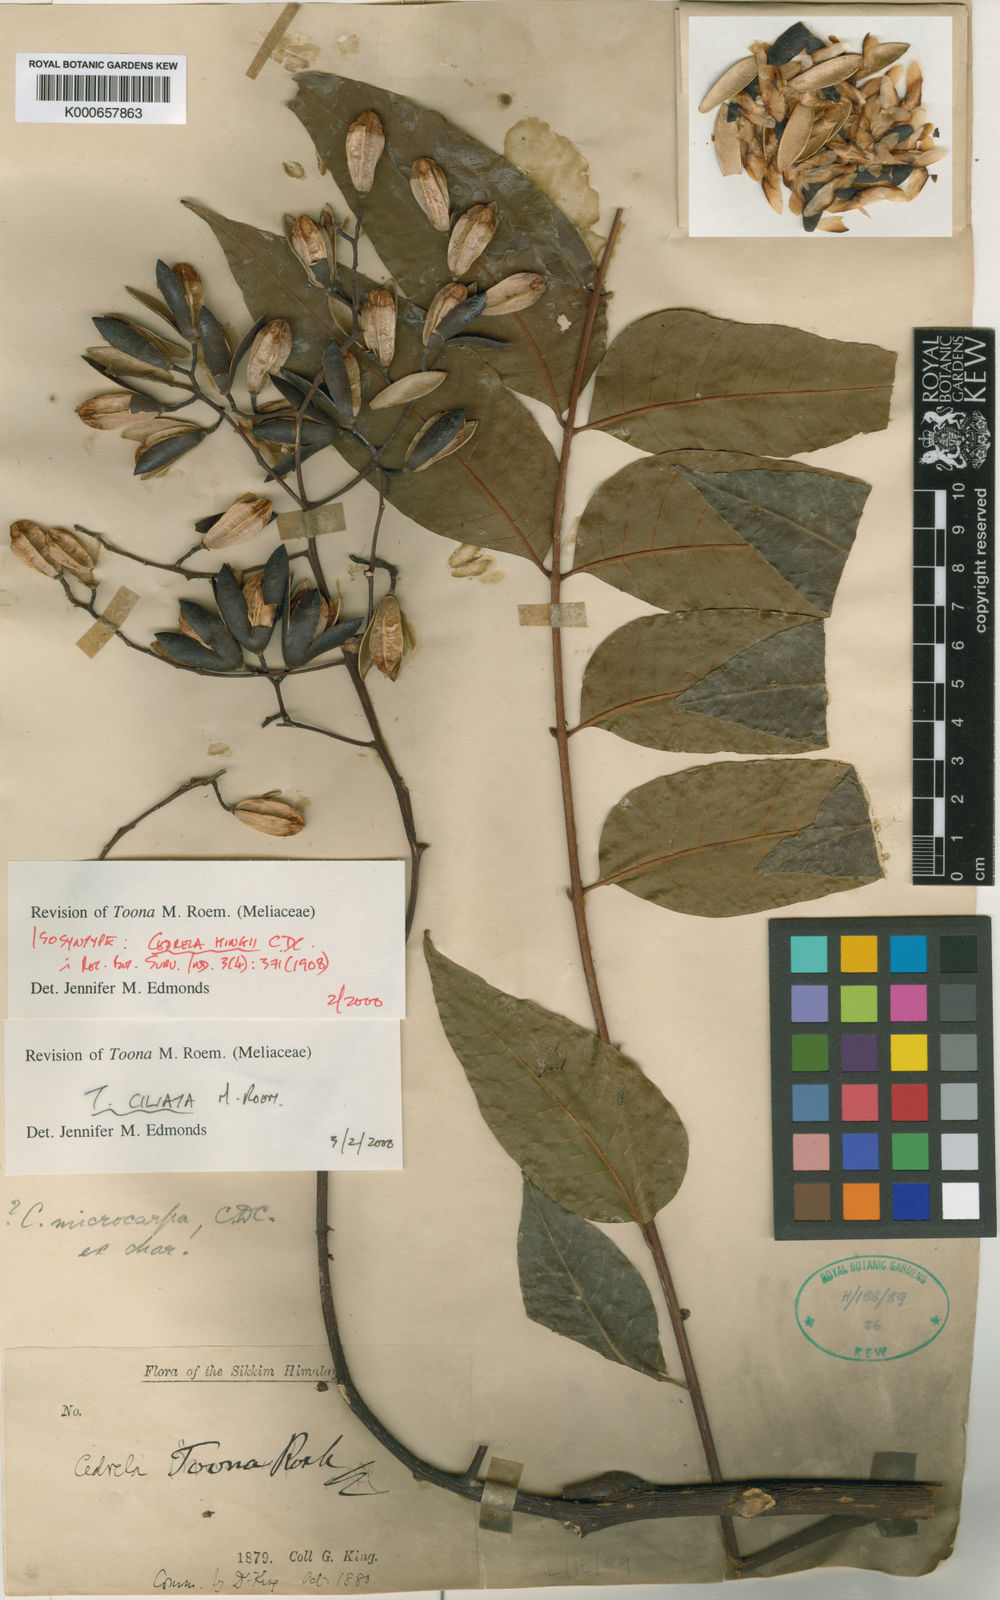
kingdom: Plantae
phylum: Tracheophyta
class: Magnoliopsida
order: Sapindales
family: Meliaceae
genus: Toona
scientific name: Toona ciliata
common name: Australian redcedar
